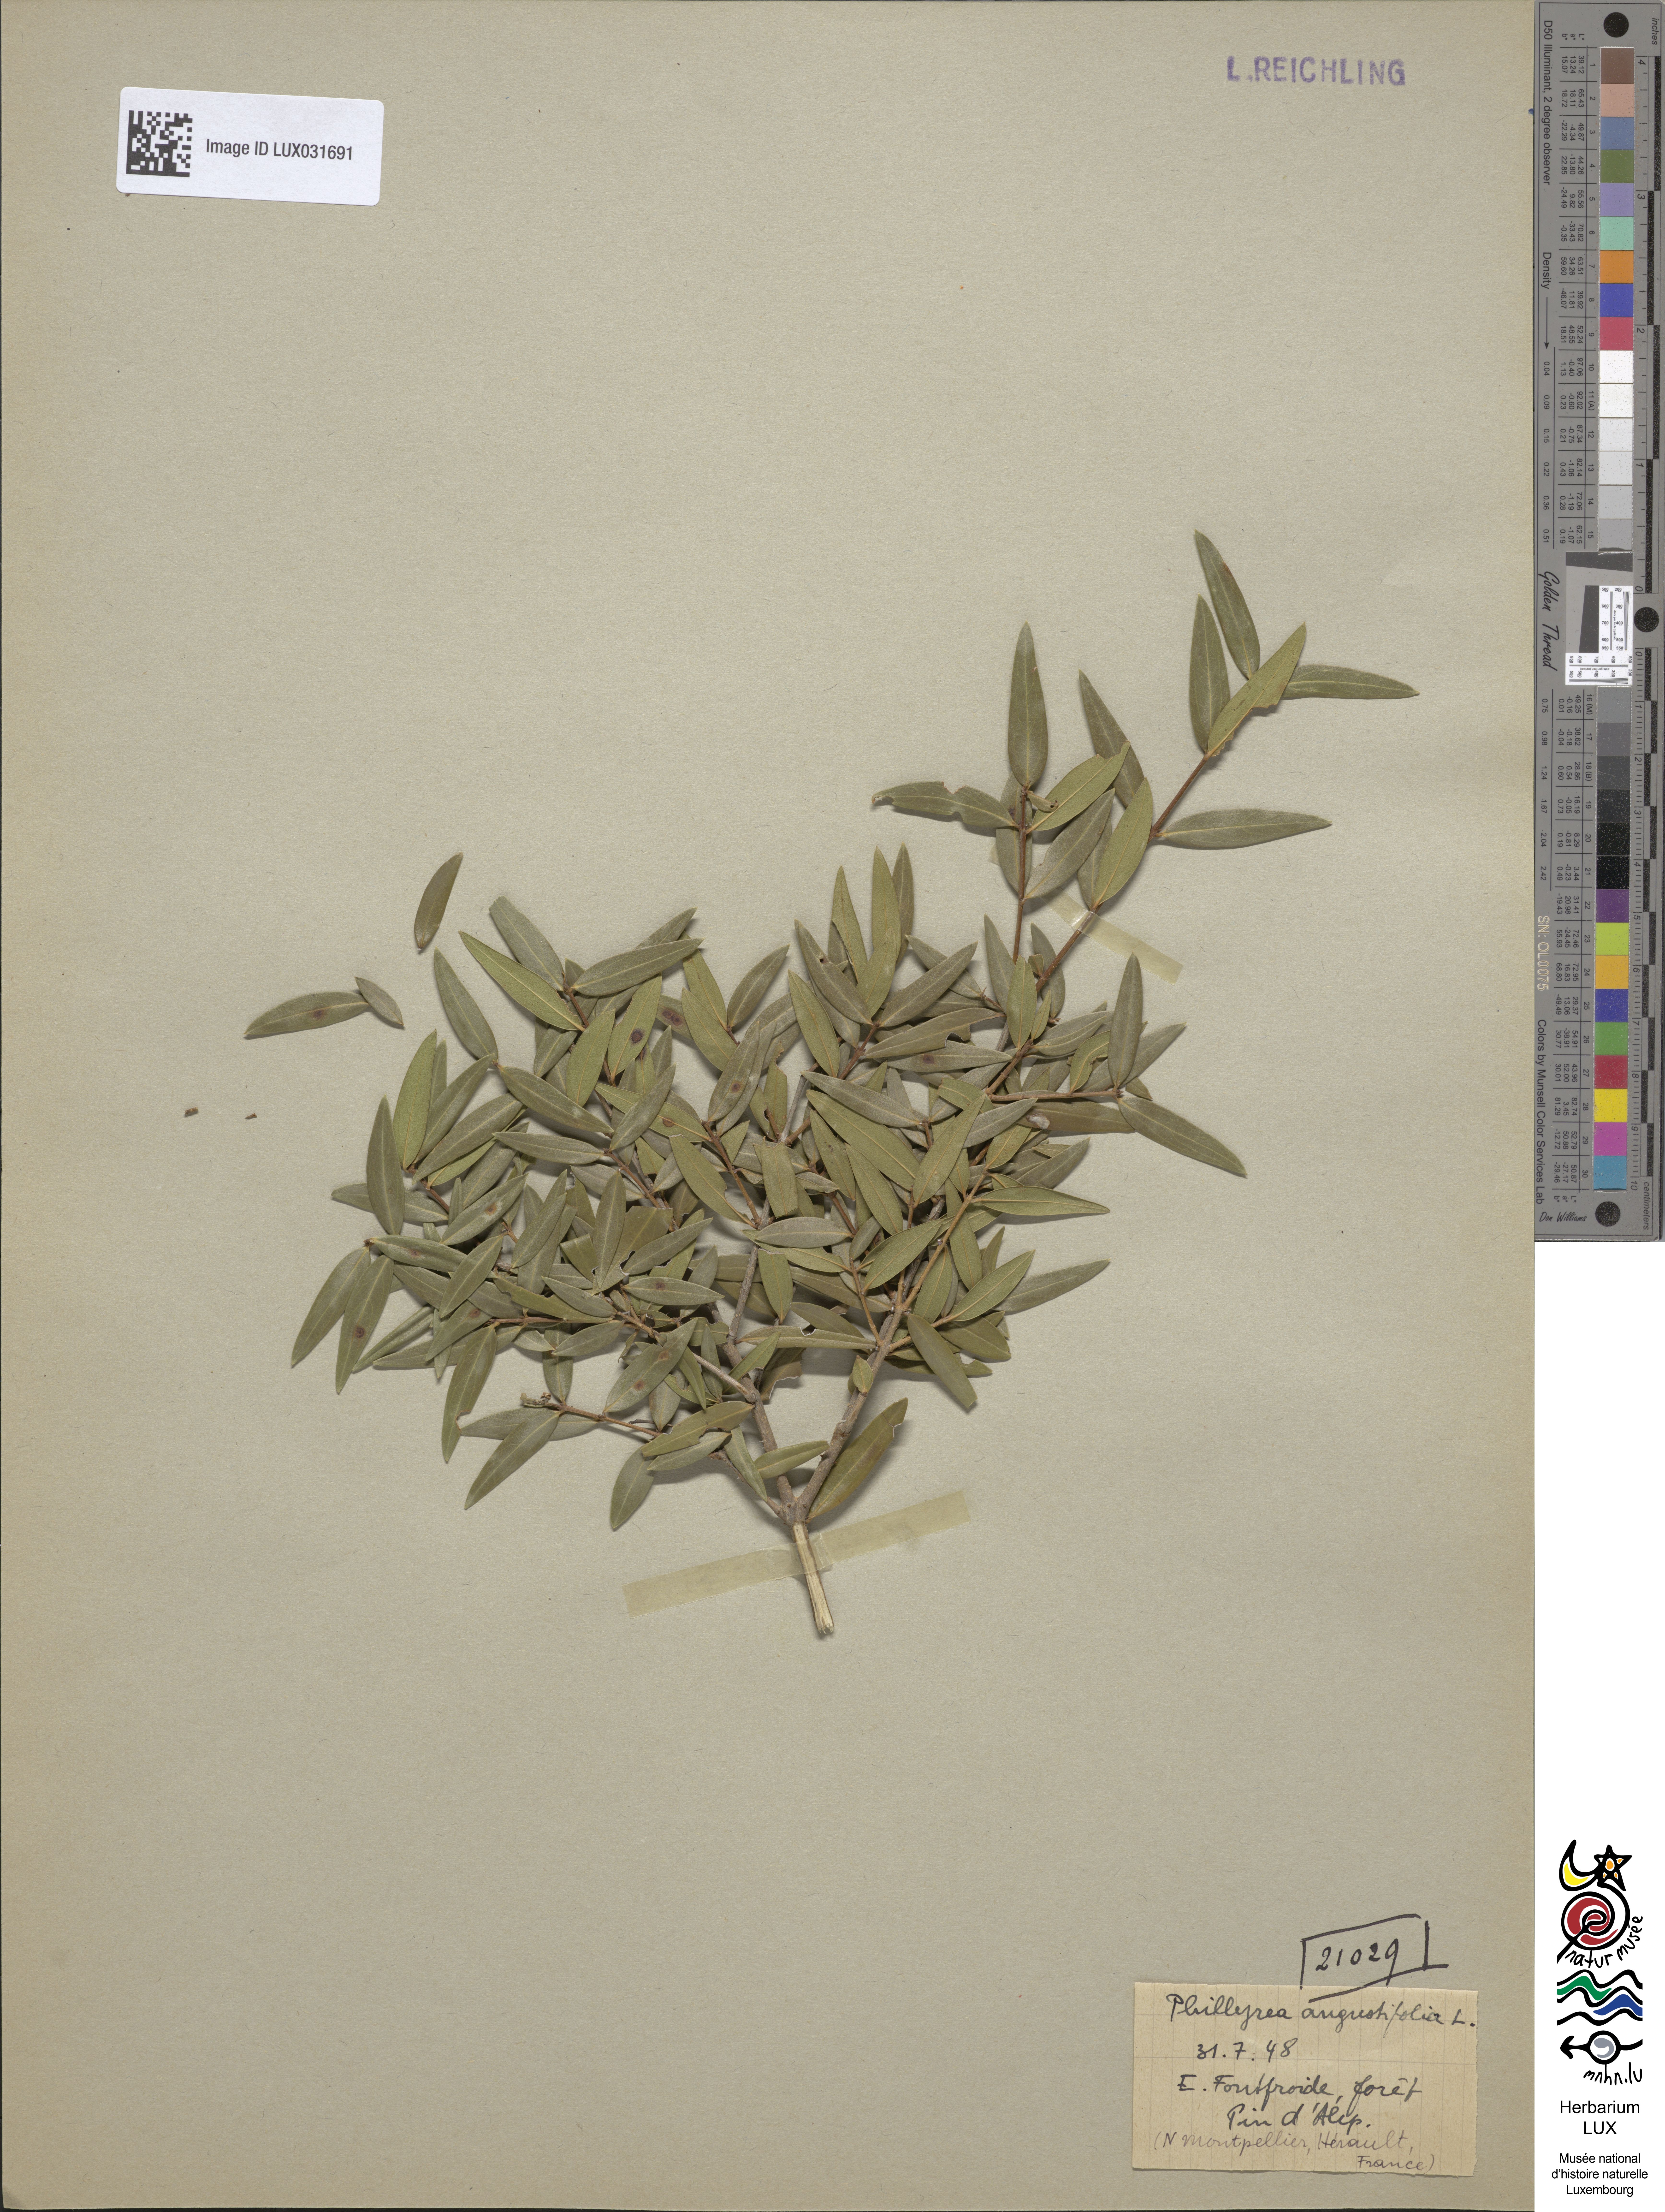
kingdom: Plantae
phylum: Tracheophyta
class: Magnoliopsida
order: Lamiales
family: Oleaceae
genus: Phillyrea
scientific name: Phillyrea angustifolia
